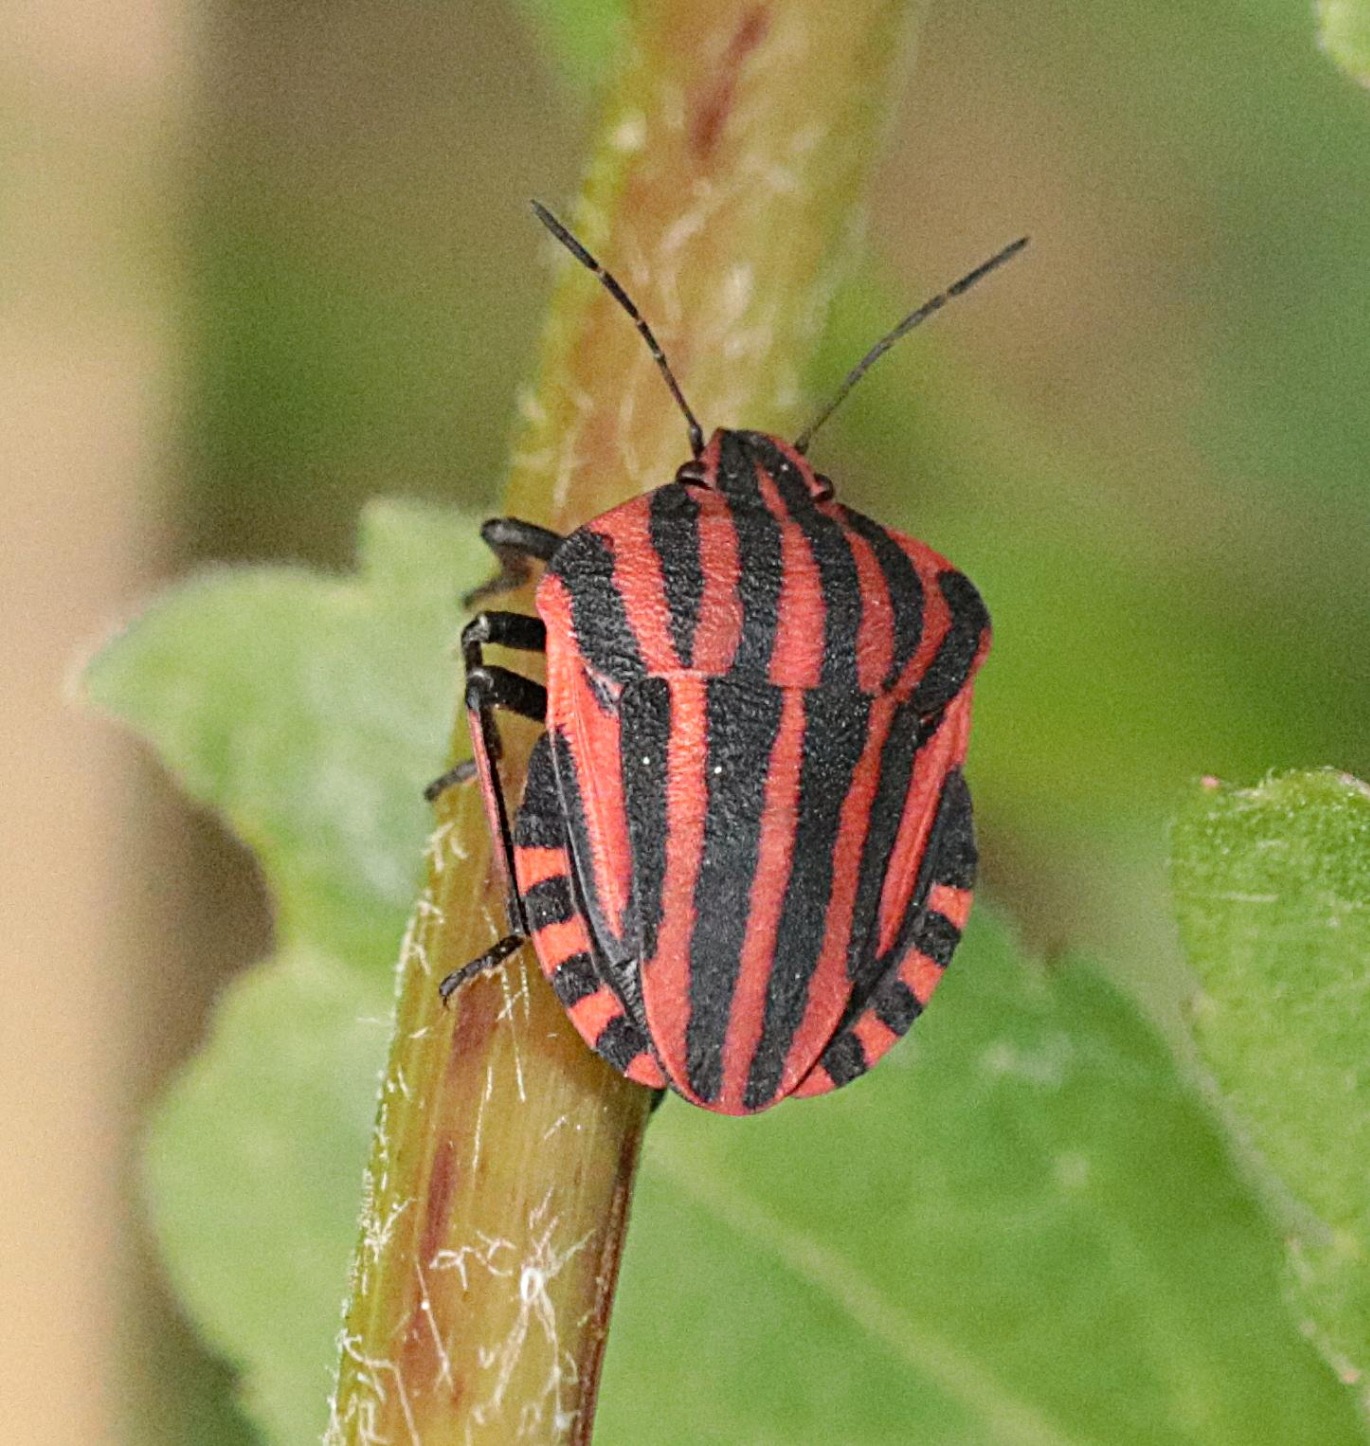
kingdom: Animalia
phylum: Arthropoda
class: Insecta
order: Hemiptera
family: Pentatomidae
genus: Graphosoma
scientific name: Graphosoma italicum
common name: Stribetæge
